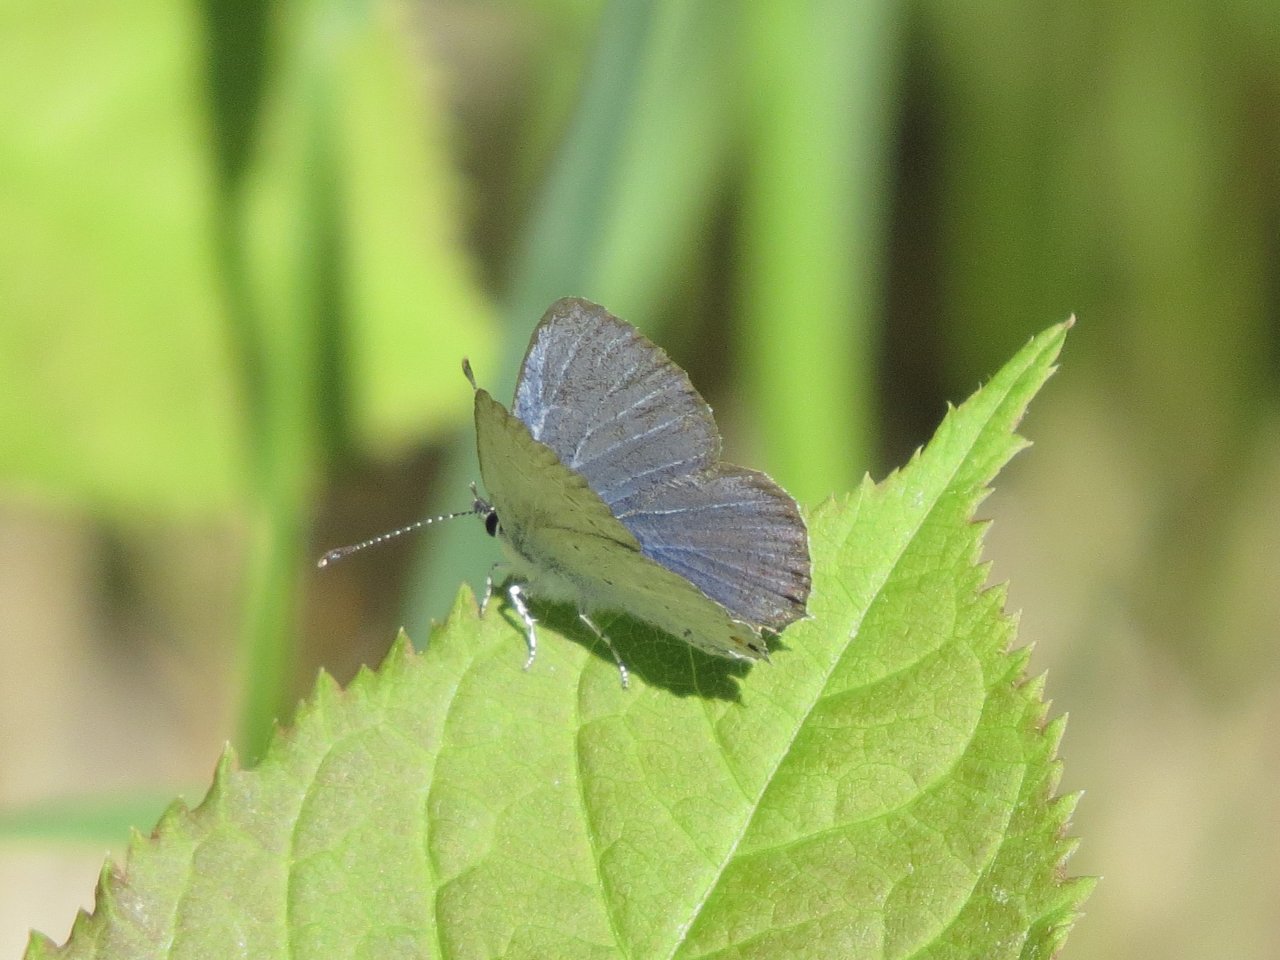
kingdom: Animalia
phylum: Arthropoda
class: Insecta
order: Lepidoptera
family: Lycaenidae
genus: Elkalyce
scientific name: Elkalyce amyntula
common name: Western Tailed-Blue
